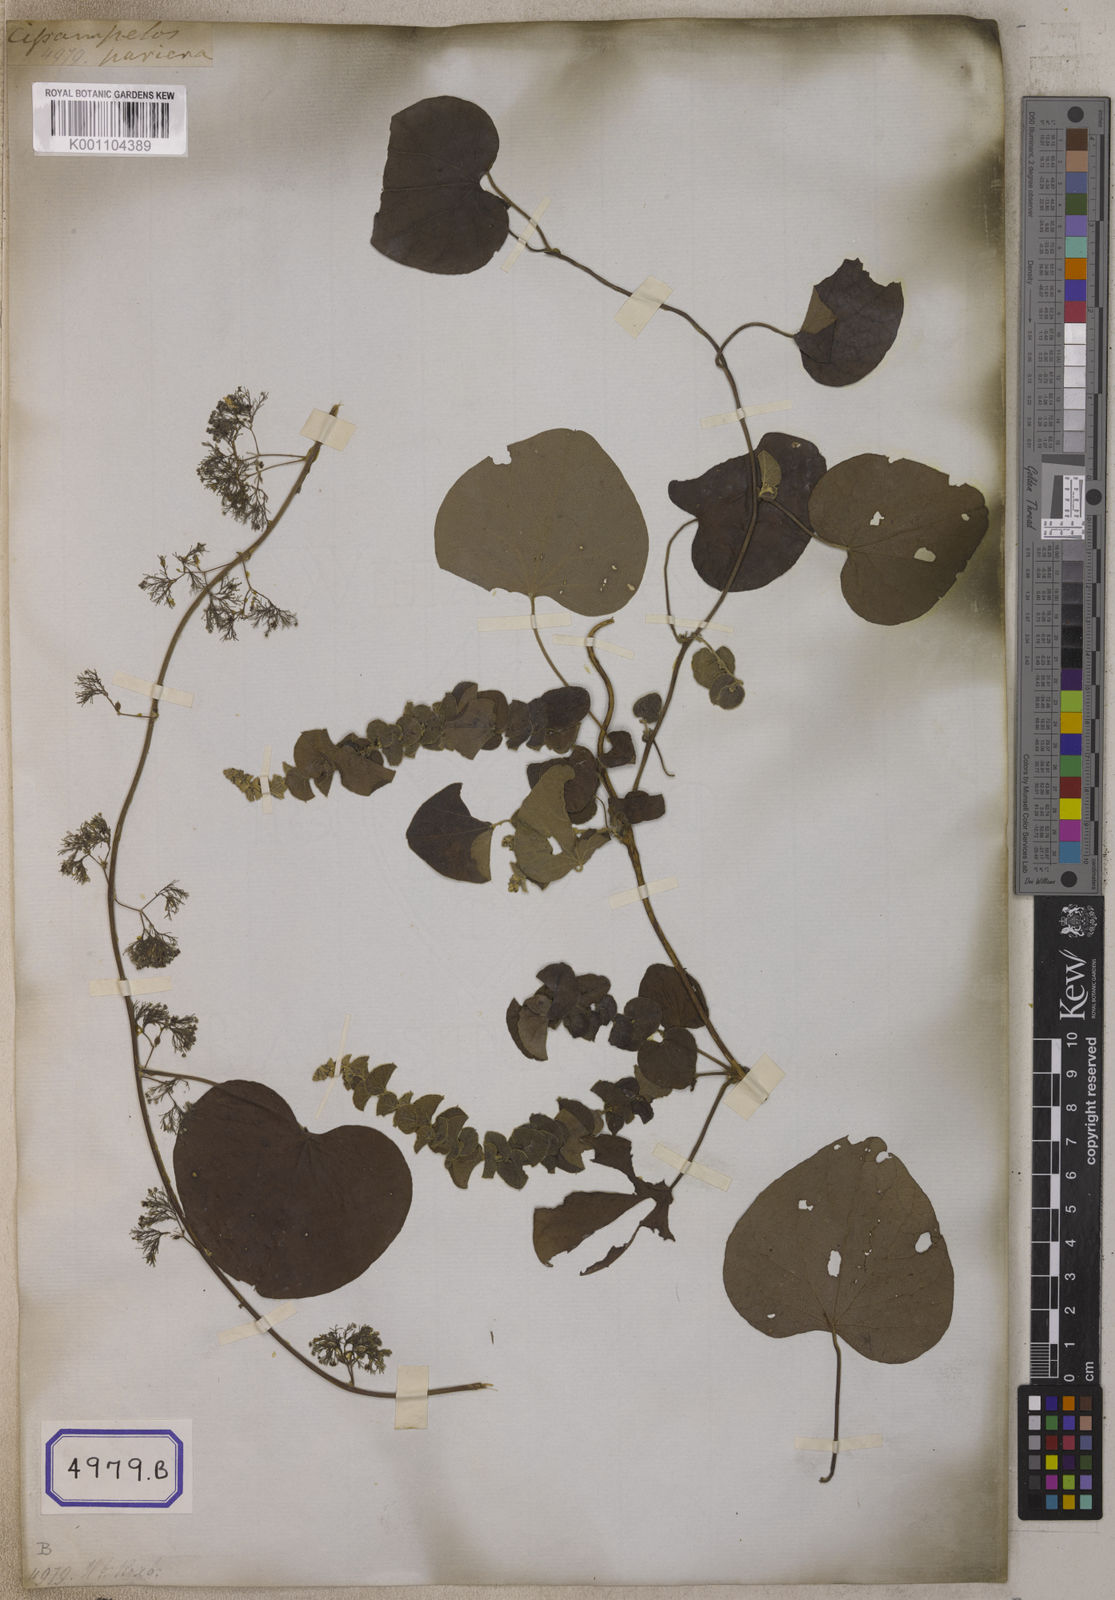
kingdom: Plantae
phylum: Tracheophyta
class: Magnoliopsida
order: Ranunculales
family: Menispermaceae
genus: Cissampelos
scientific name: Cissampelos pareira
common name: Velvetleaf
